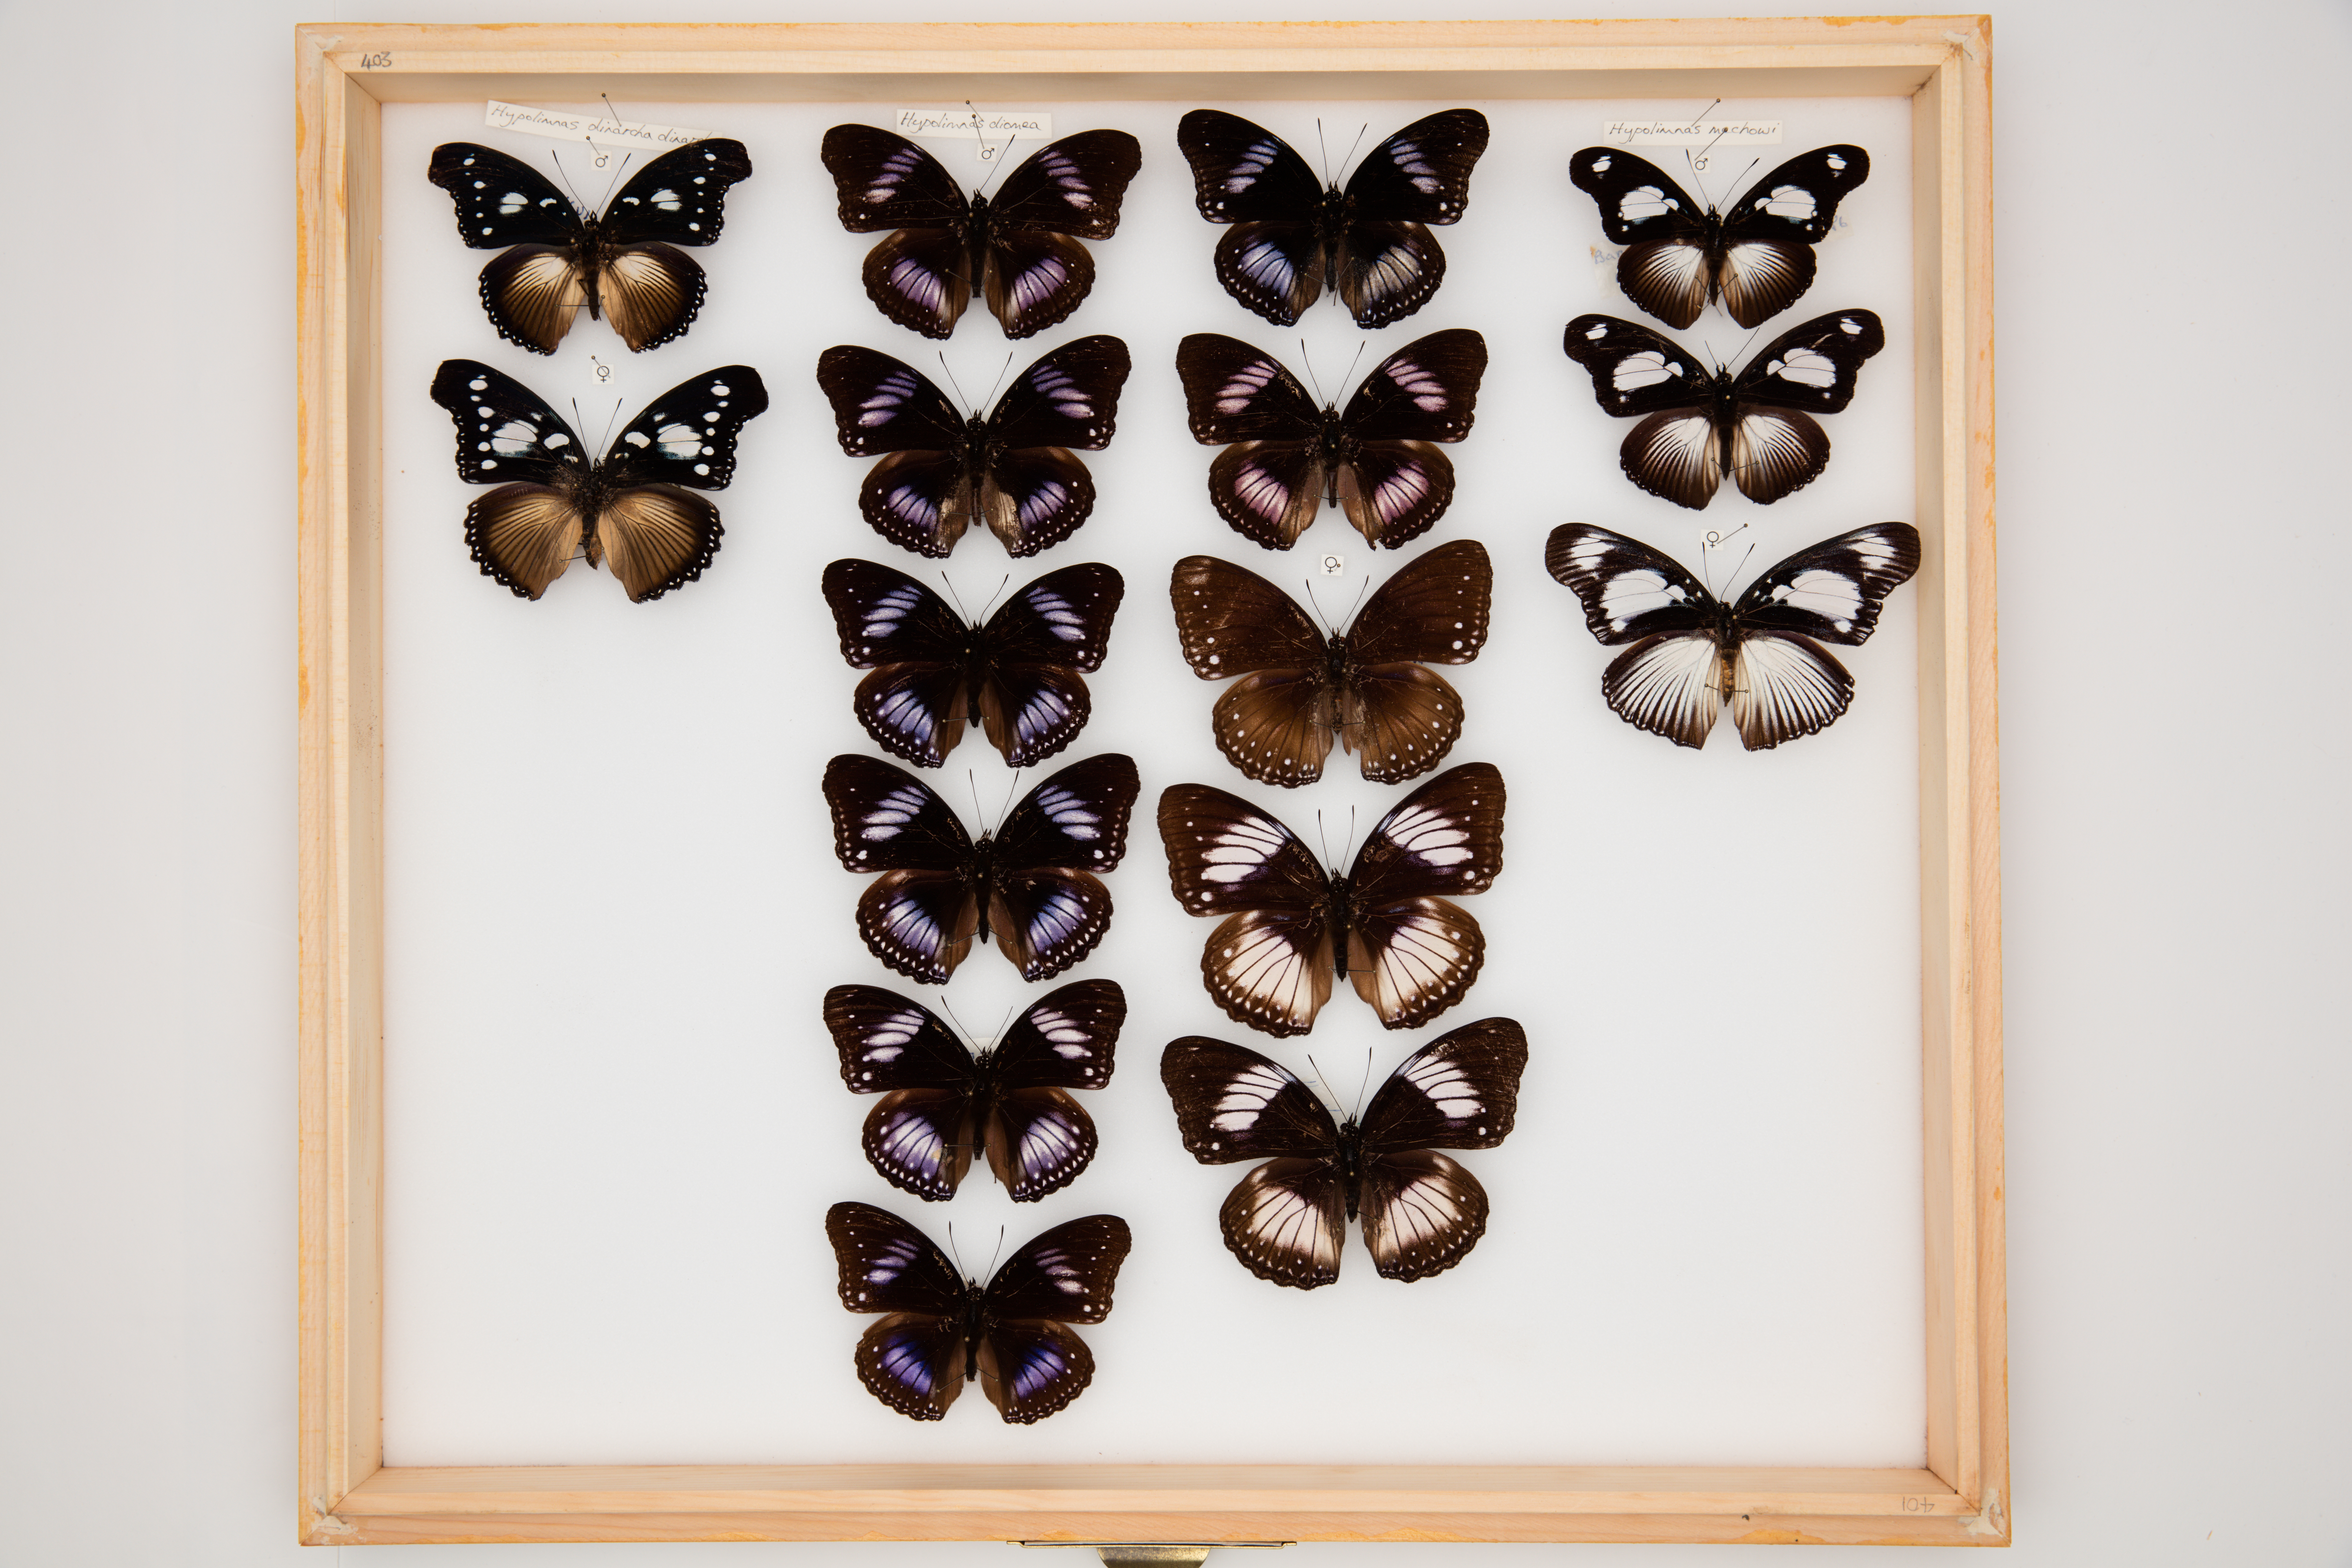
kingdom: Animalia
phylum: Arthropoda
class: Insecta
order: Lepidoptera
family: Nymphalidae
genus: Hypolimnas
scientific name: Hypolimnas diomea
